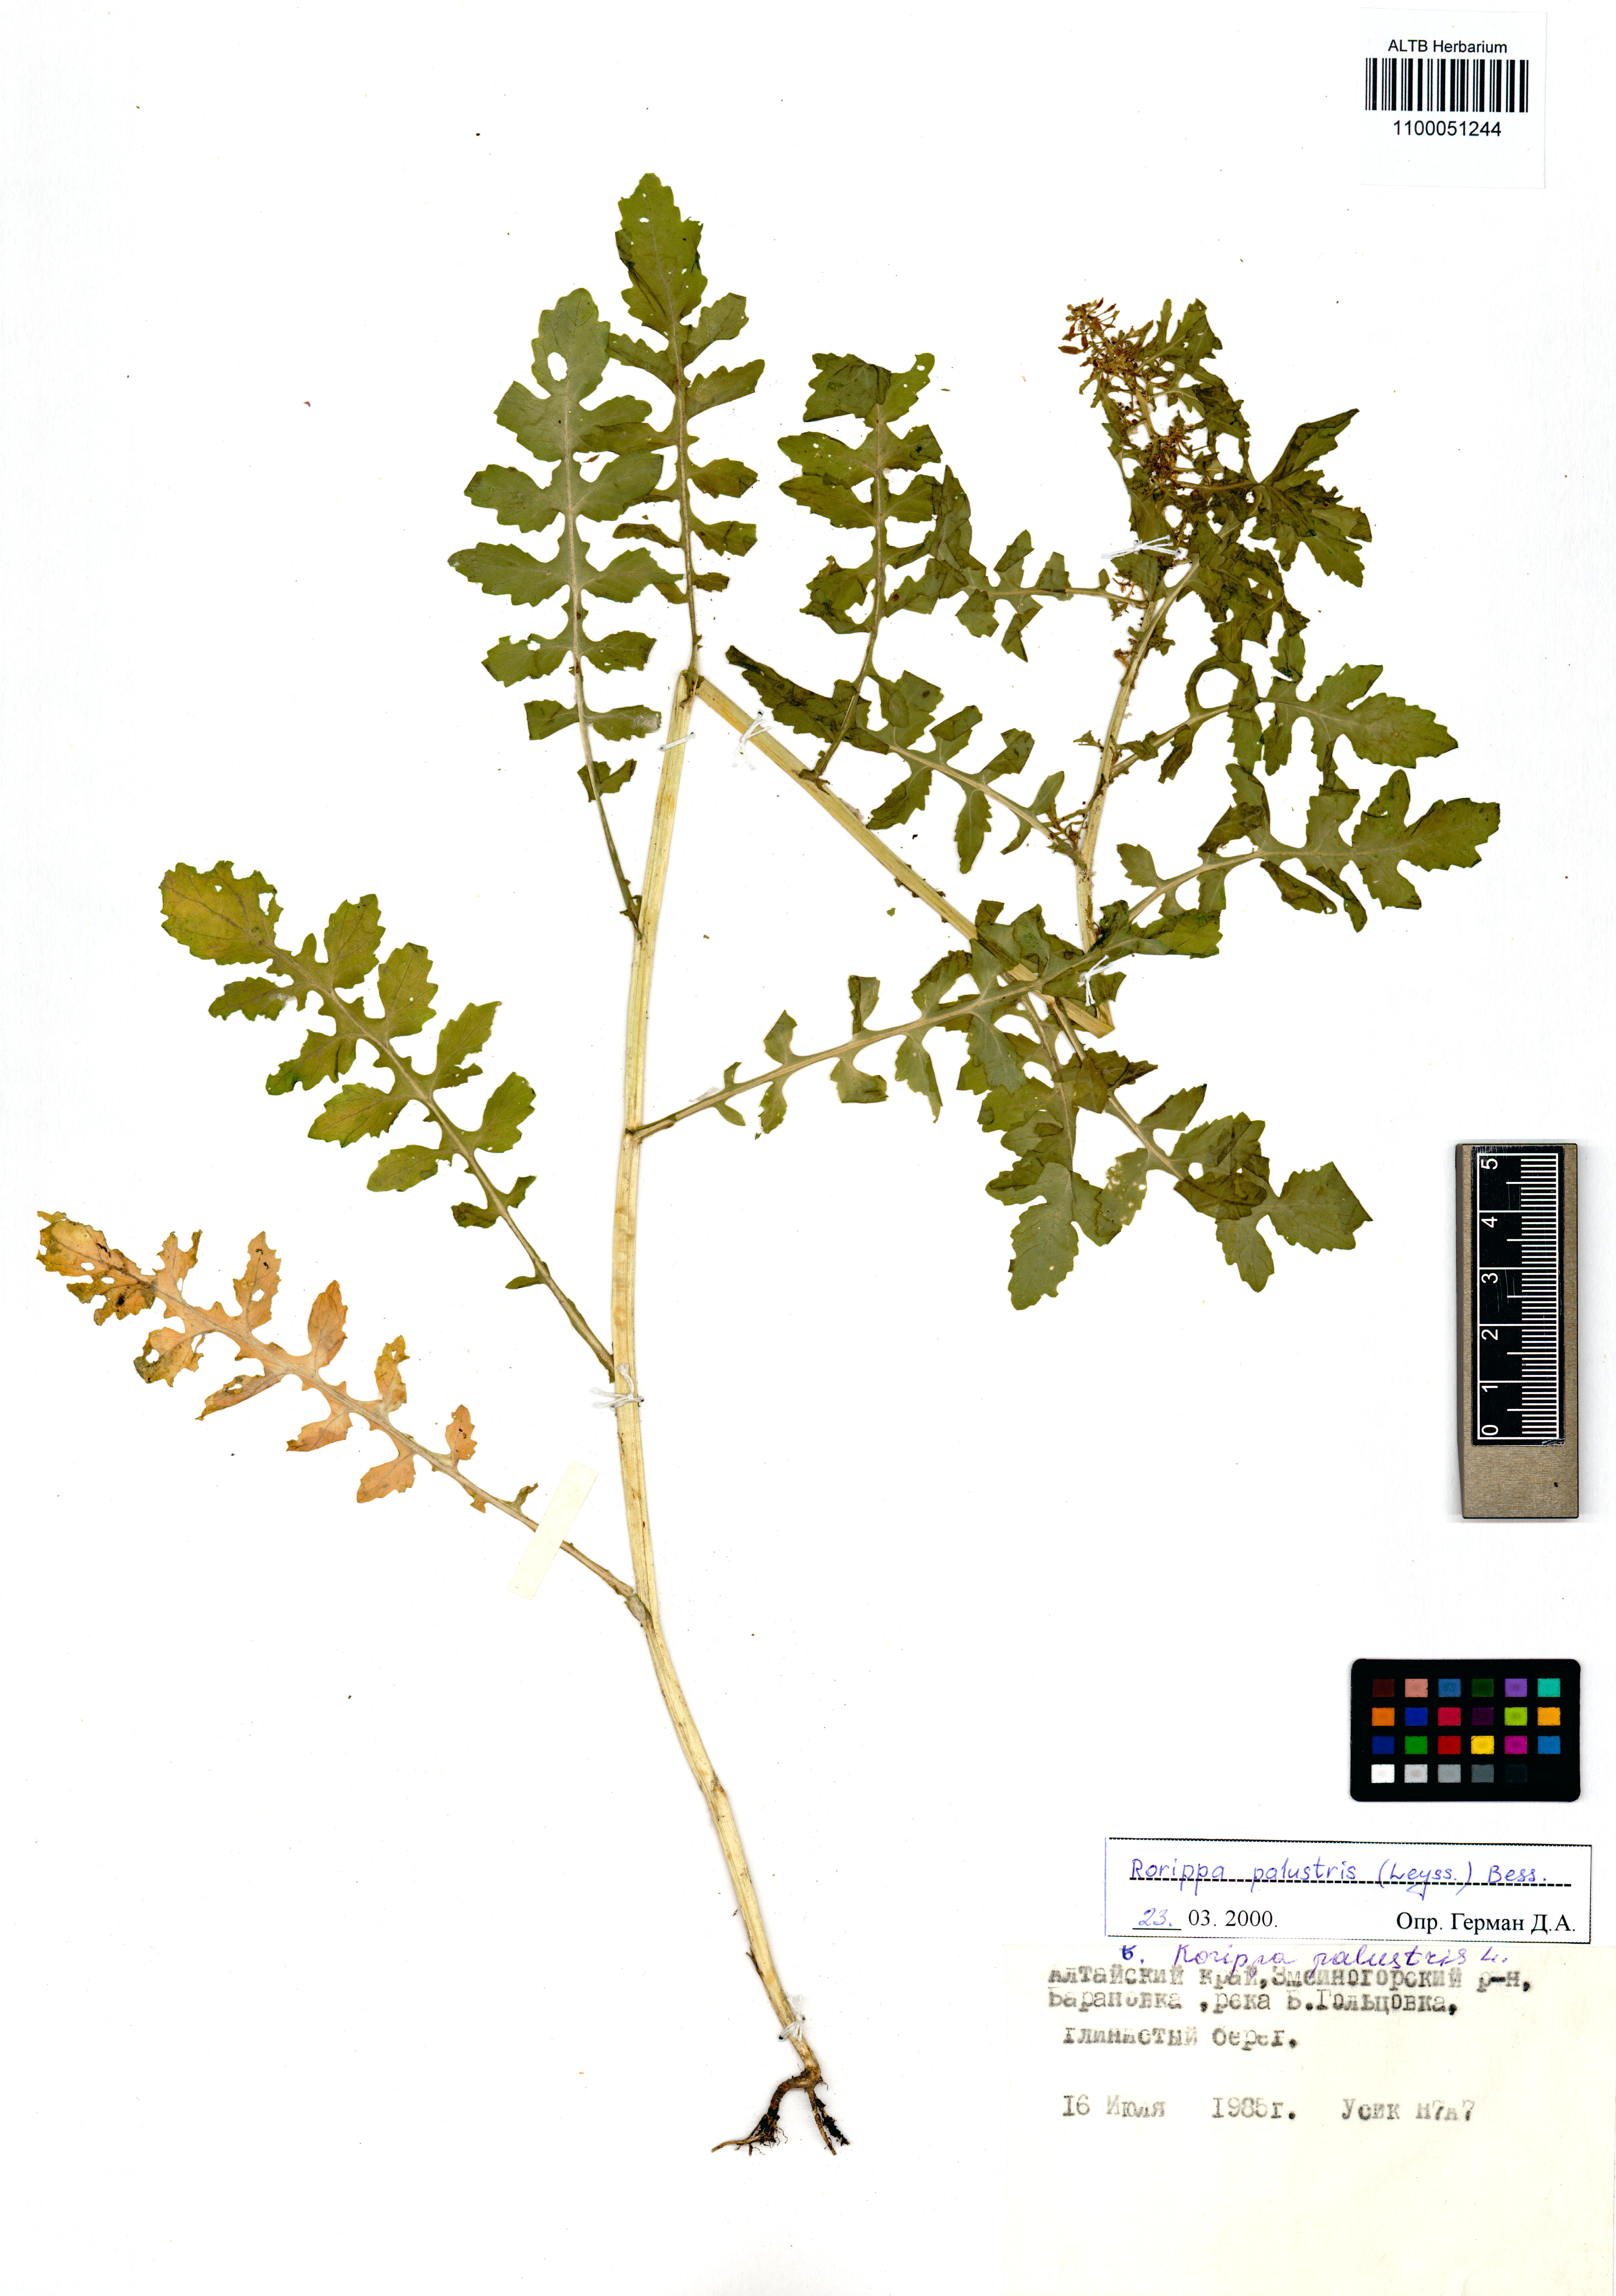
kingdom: Plantae
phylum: Tracheophyta
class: Magnoliopsida
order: Brassicales
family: Brassicaceae
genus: Rorippa
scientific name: Rorippa palustris
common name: Marsh yellow-cress
